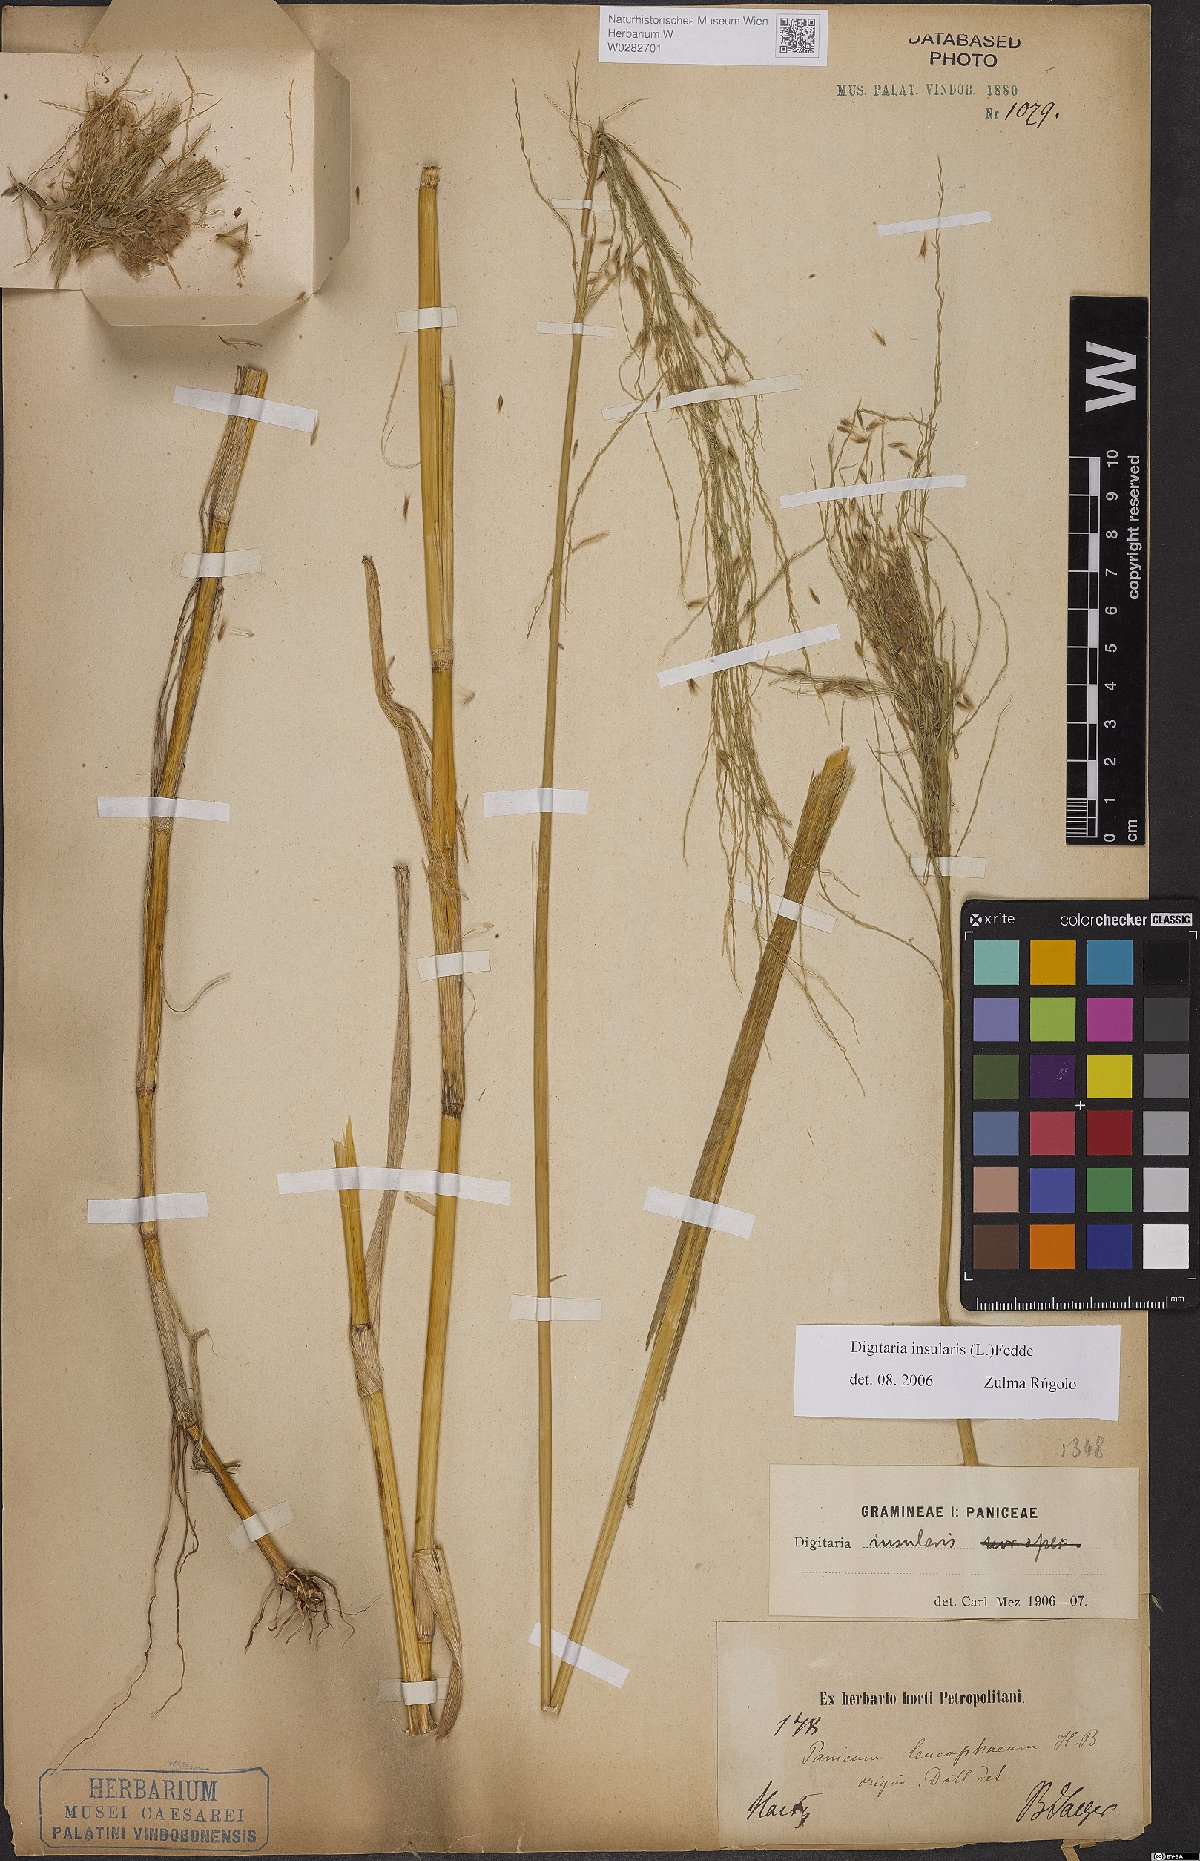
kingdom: Plantae
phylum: Tracheophyta
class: Liliopsida
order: Poales
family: Poaceae
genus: Digitaria
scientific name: Digitaria insularis
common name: Sourgrass
